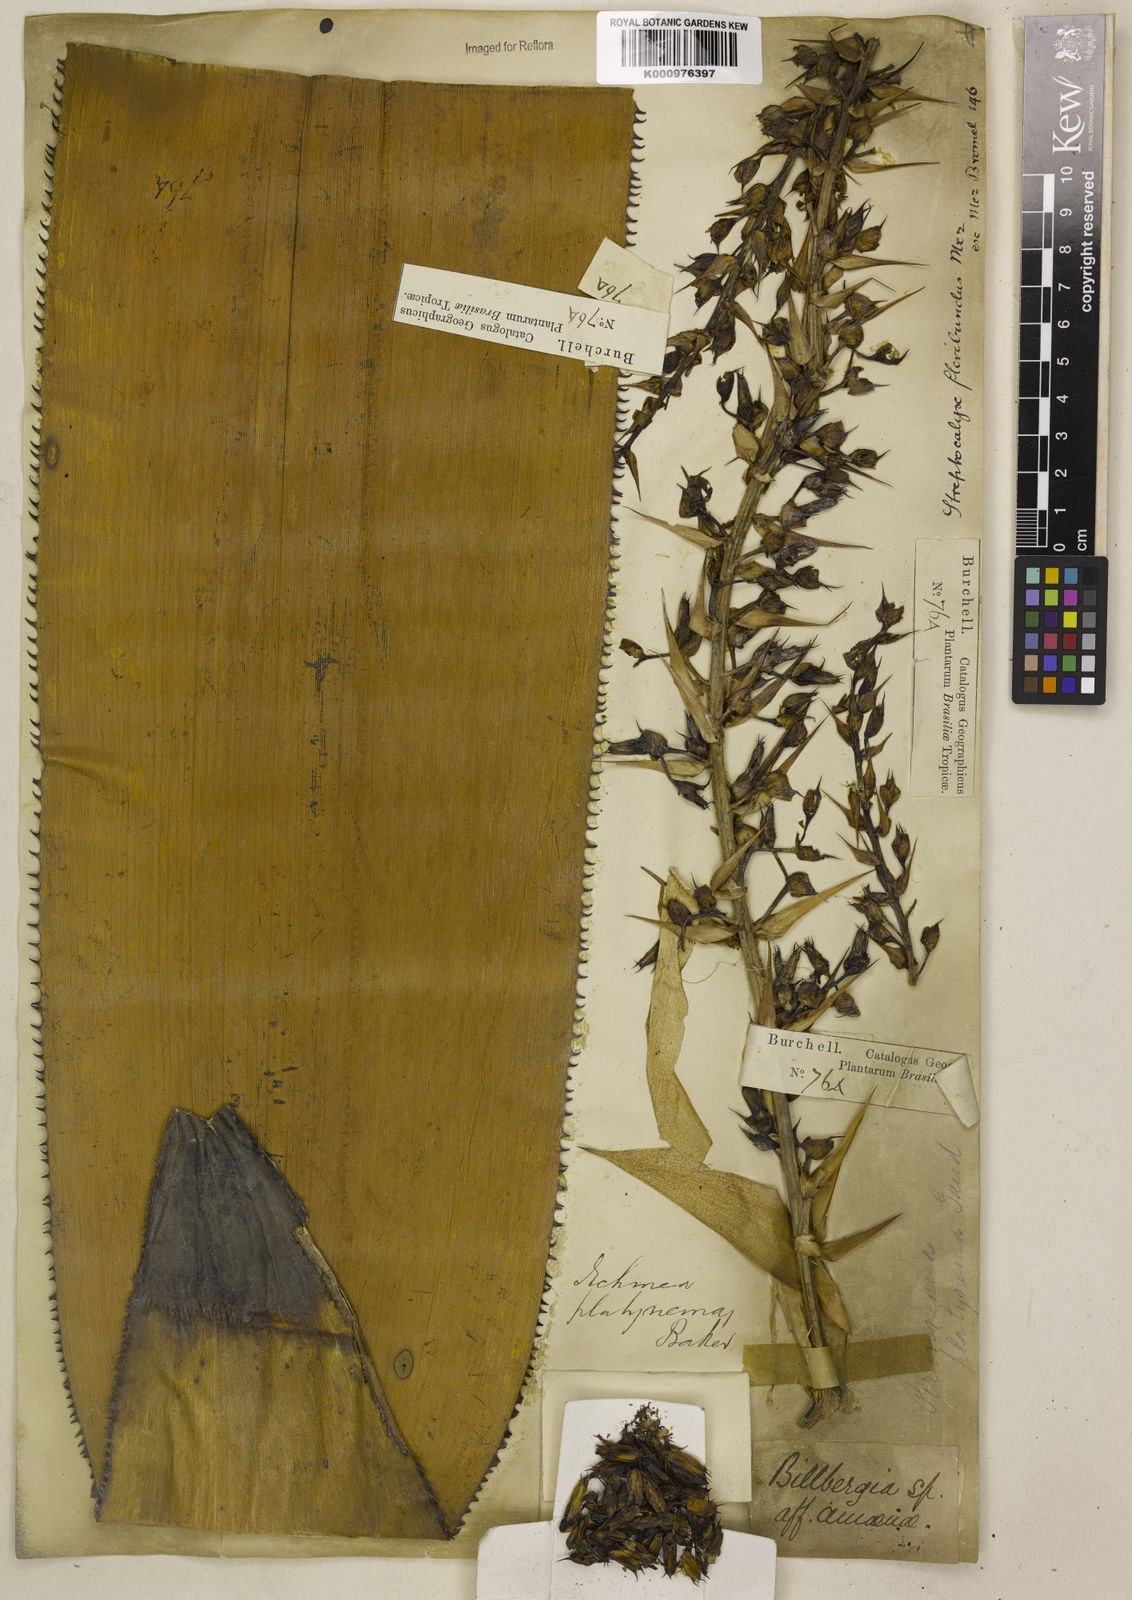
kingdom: Plantae
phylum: Tracheophyta
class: Liliopsida
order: Poales
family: Bromeliaceae
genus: Aechmea
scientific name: Aechmea floribunda
